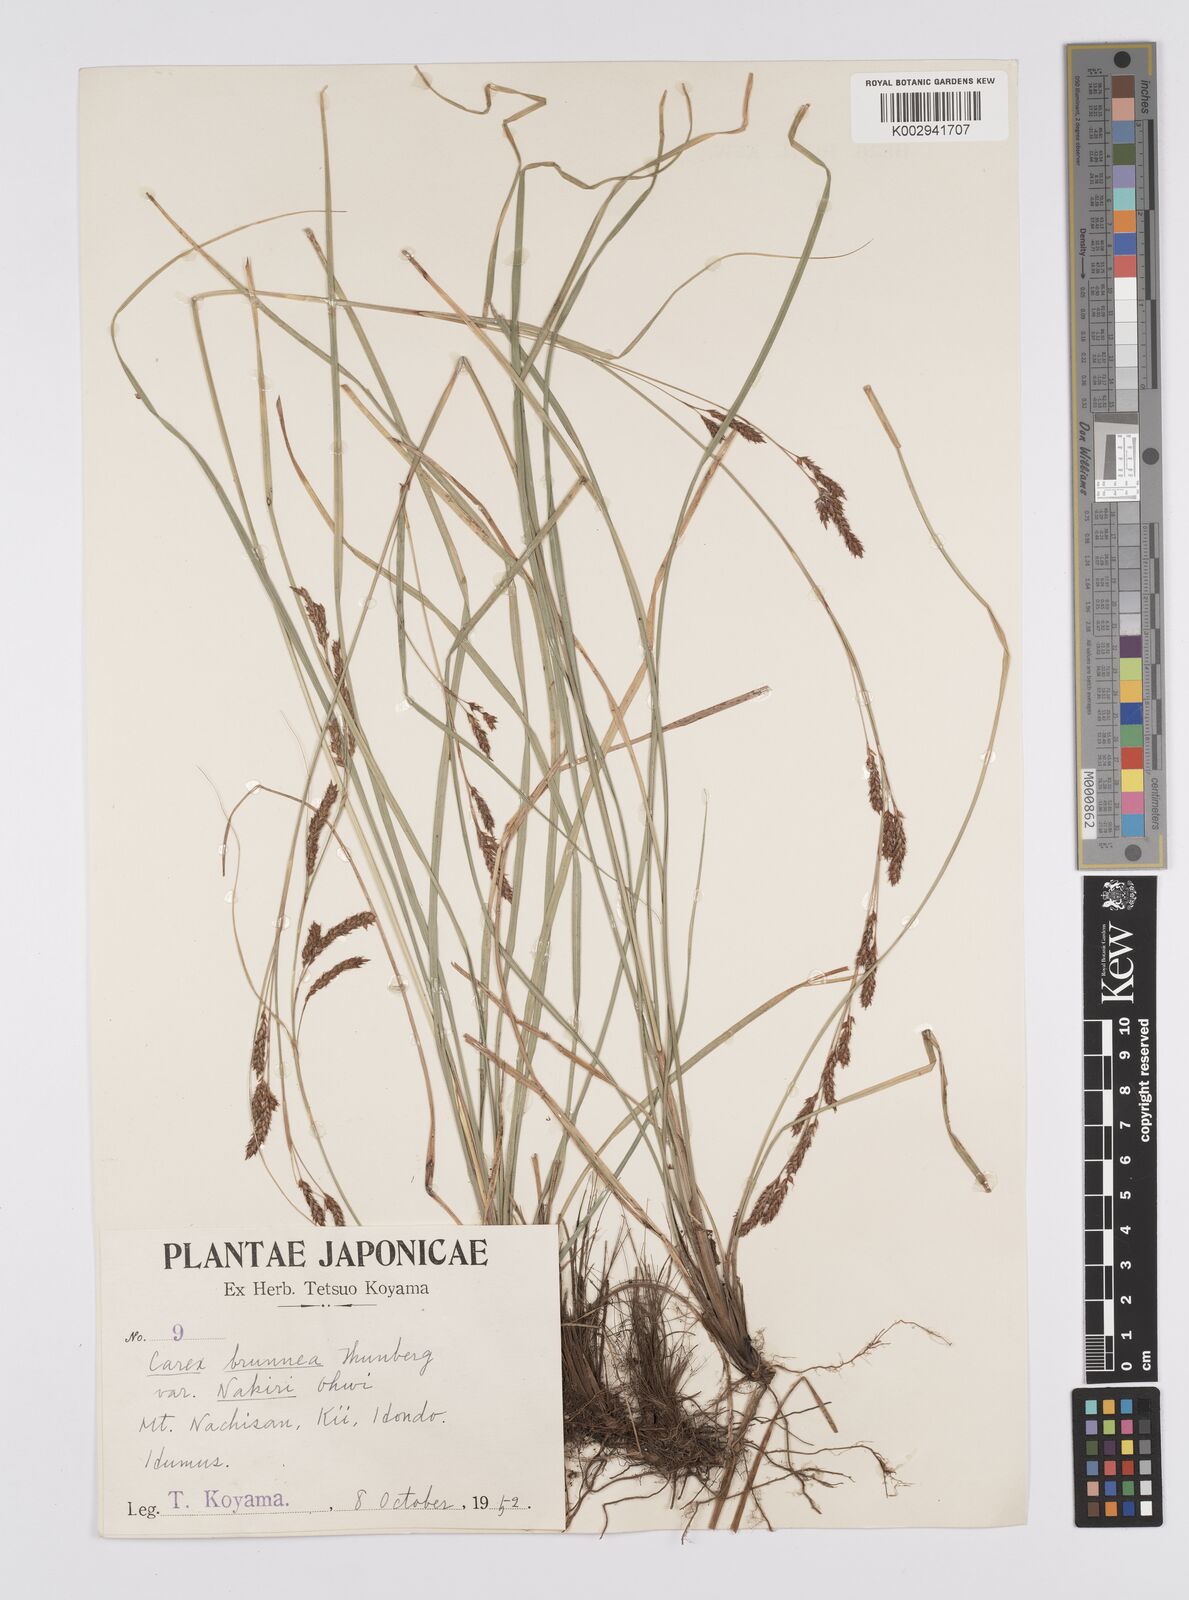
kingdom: Plantae
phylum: Tracheophyta
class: Liliopsida
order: Poales
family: Cyperaceae
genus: Carex
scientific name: Carex brunnea
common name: Greater brown sedge
